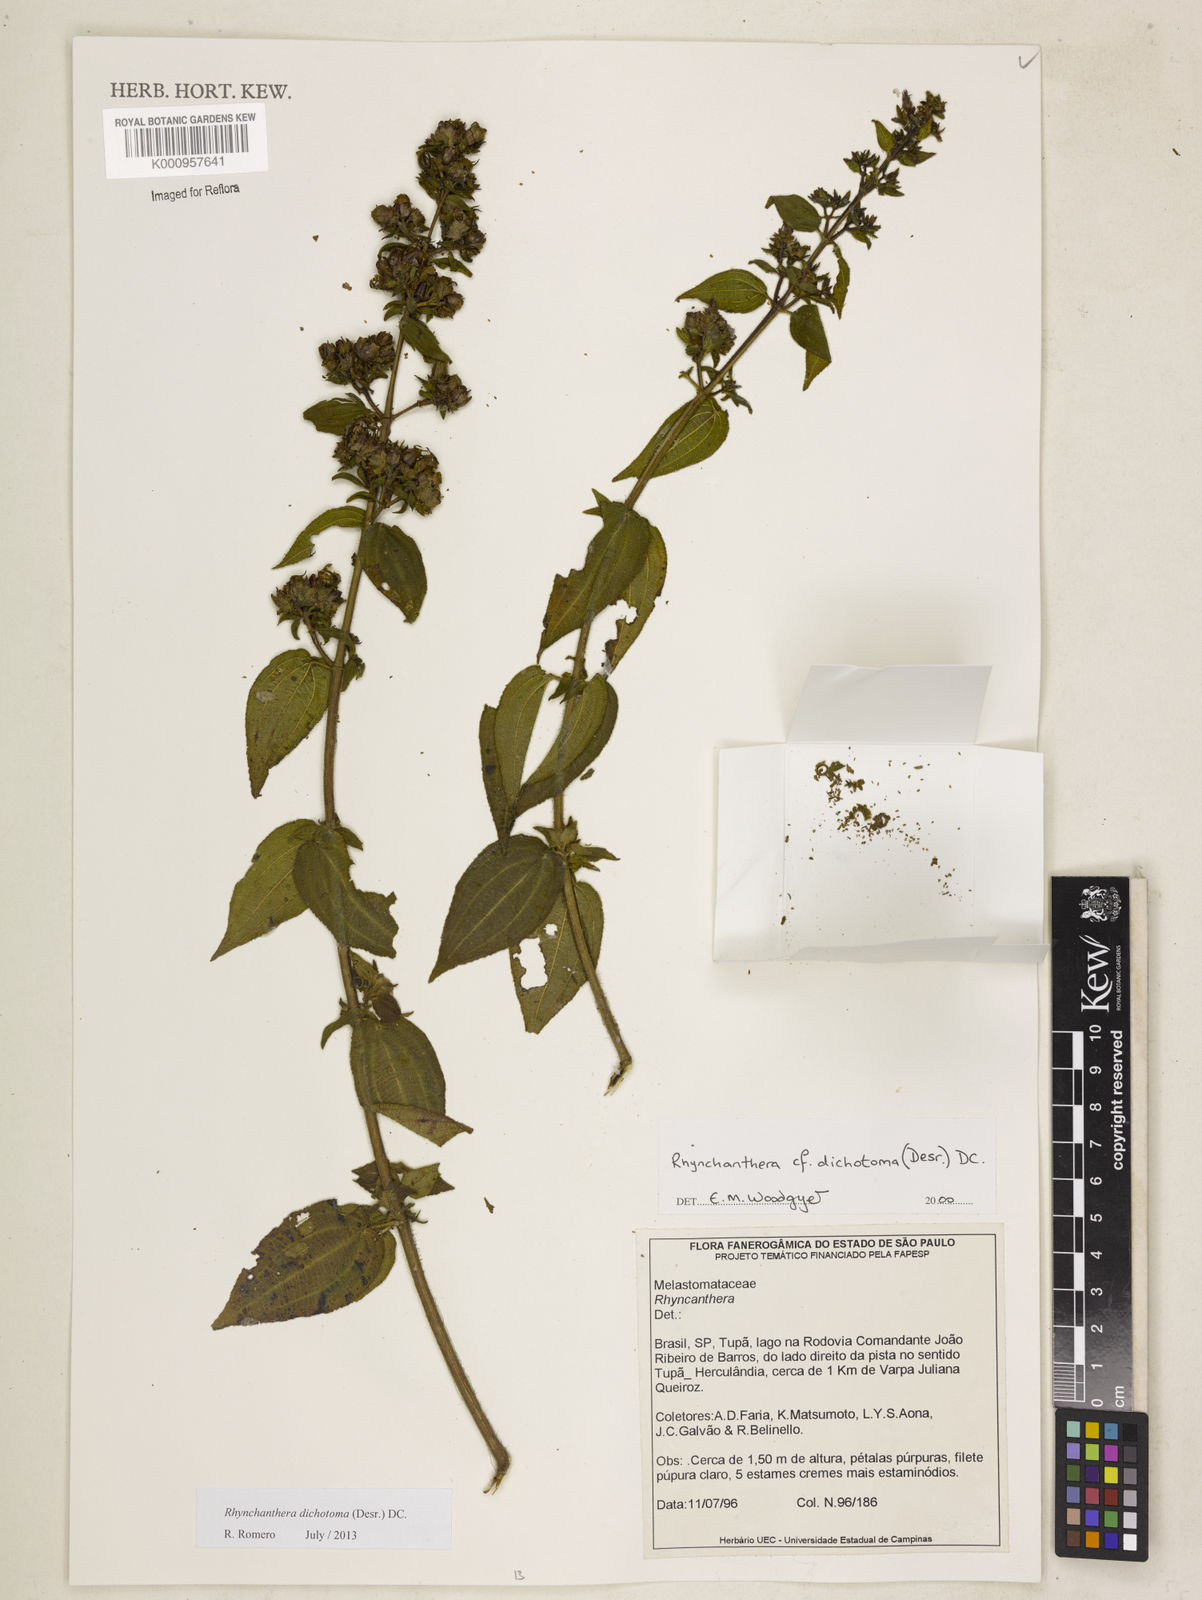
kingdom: Plantae
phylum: Tracheophyta
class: Magnoliopsida
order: Myrtales
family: Melastomataceae
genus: Rhynchanthera
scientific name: Rhynchanthera dichotoma
